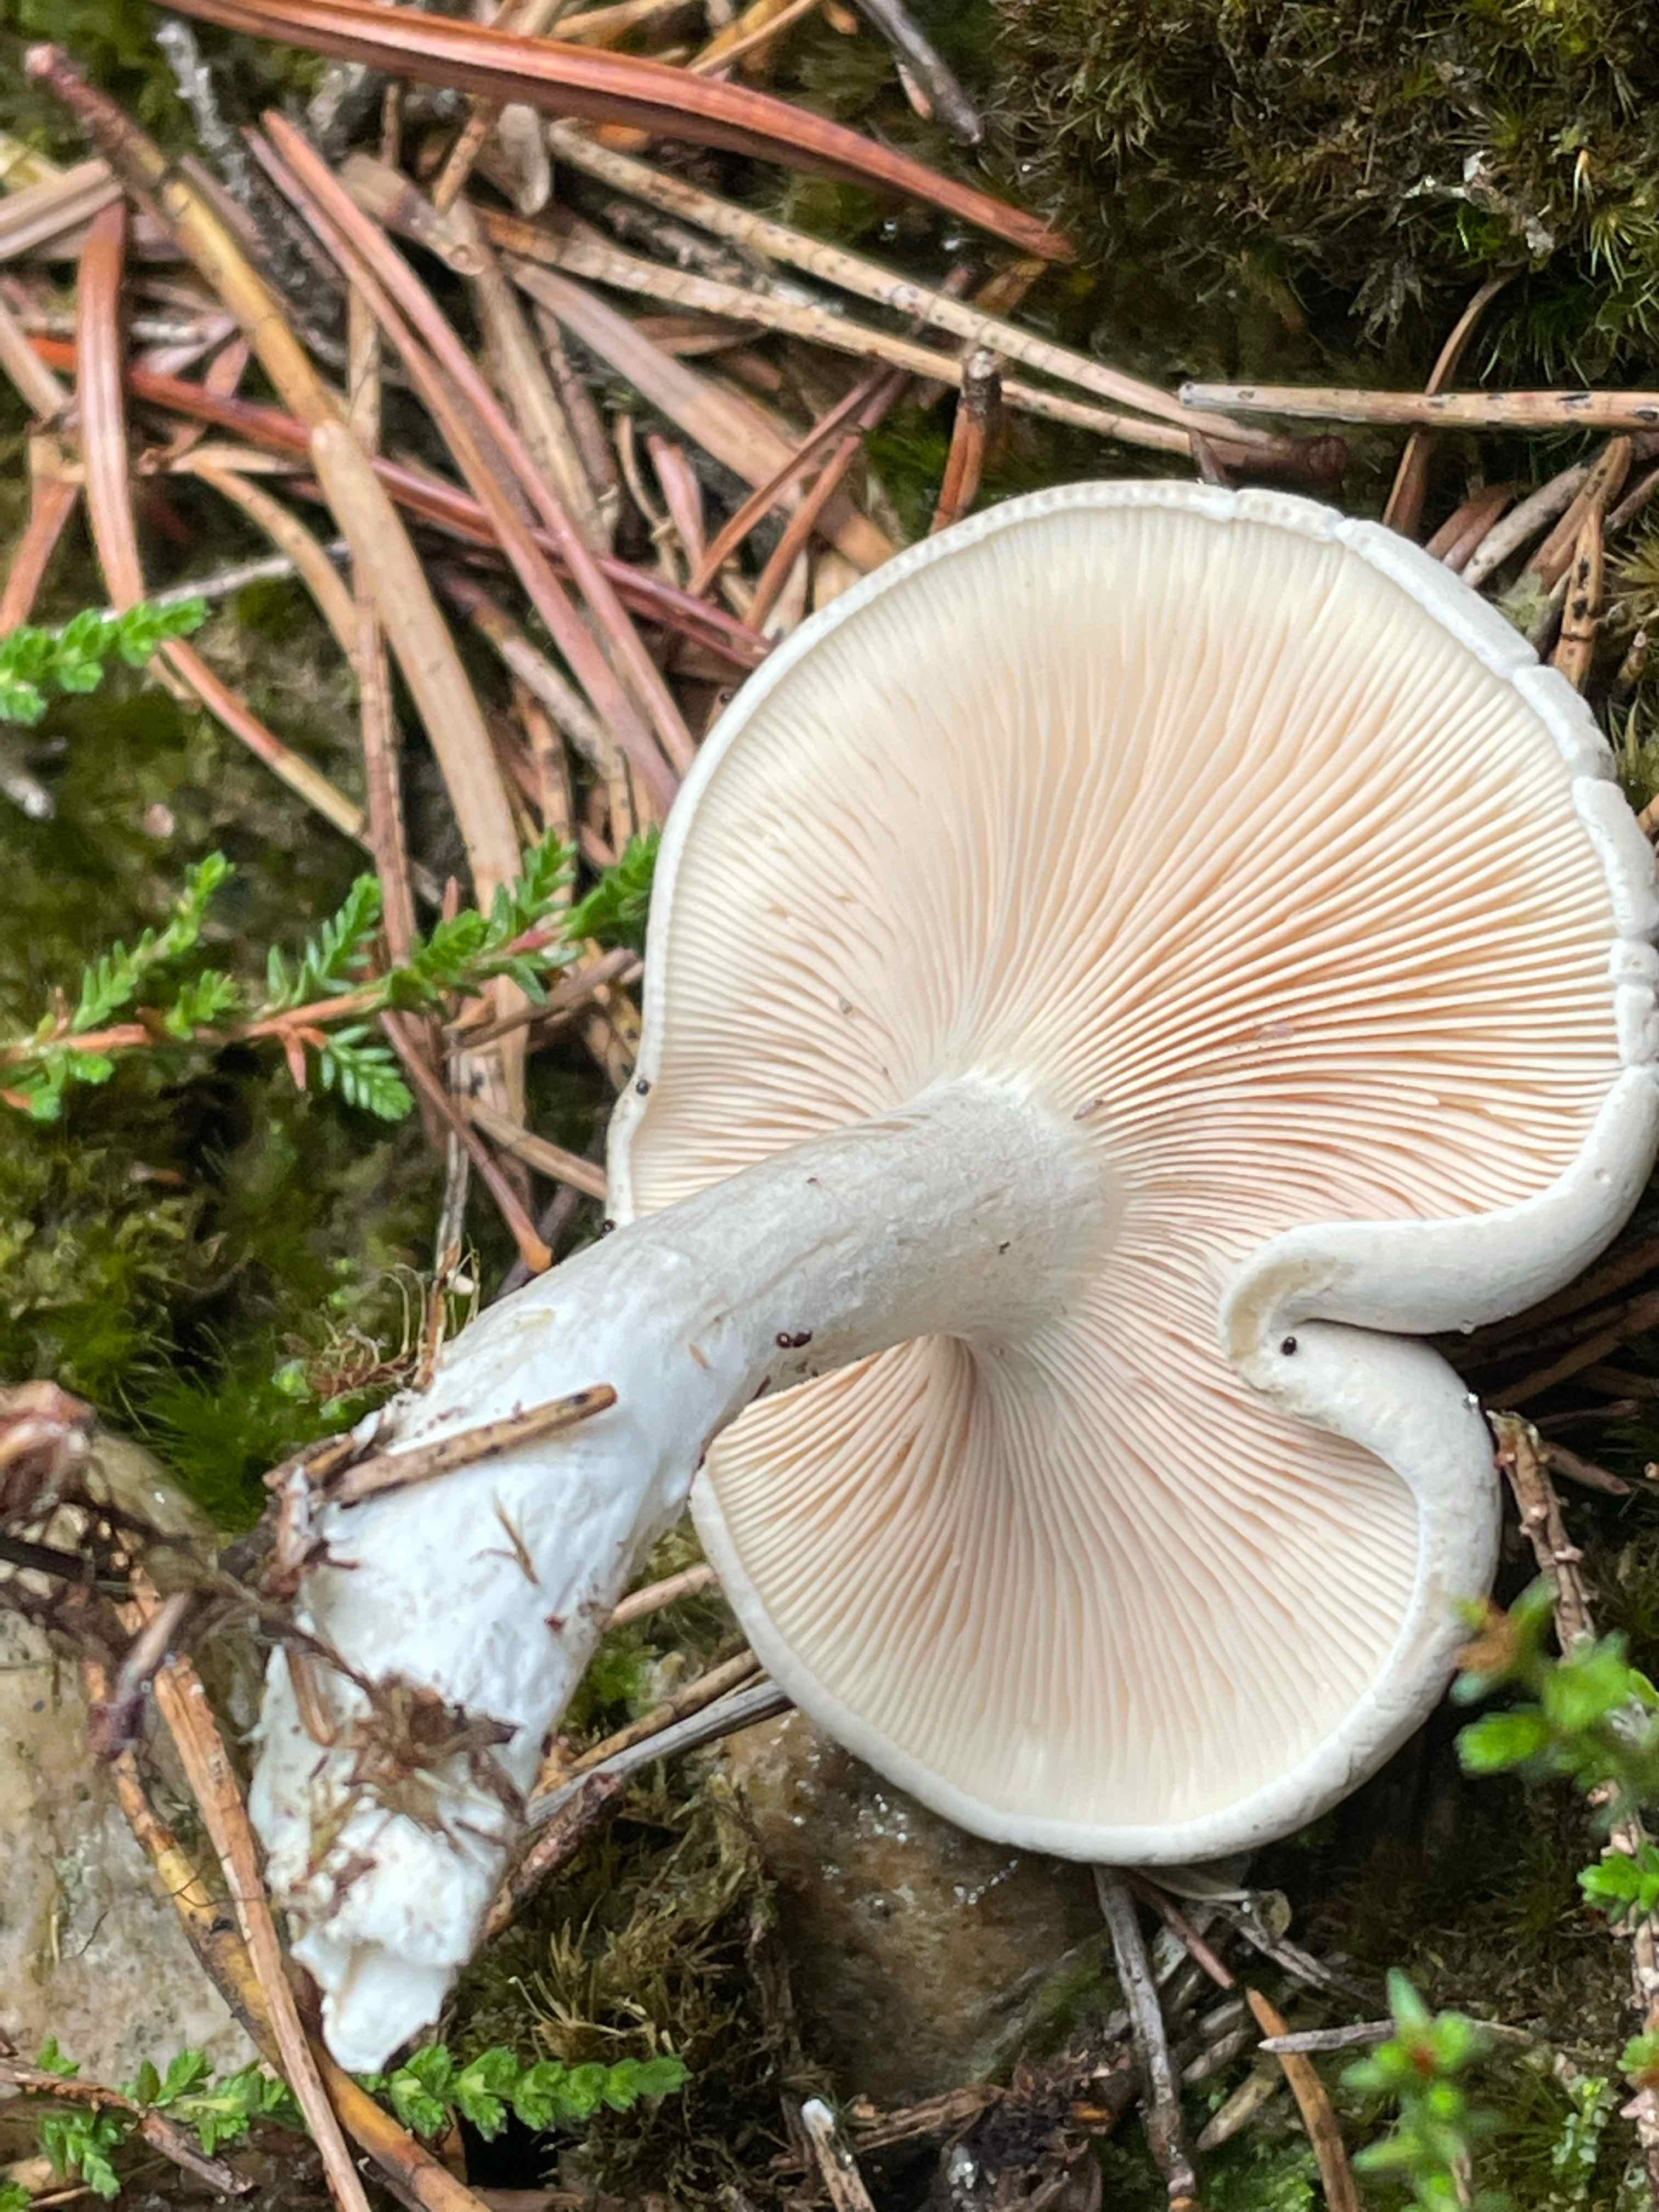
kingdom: Fungi
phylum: Basidiomycota
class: Agaricomycetes
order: Agaricales
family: Entolomataceae
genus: Clitopilus
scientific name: Clitopilus prunulus
